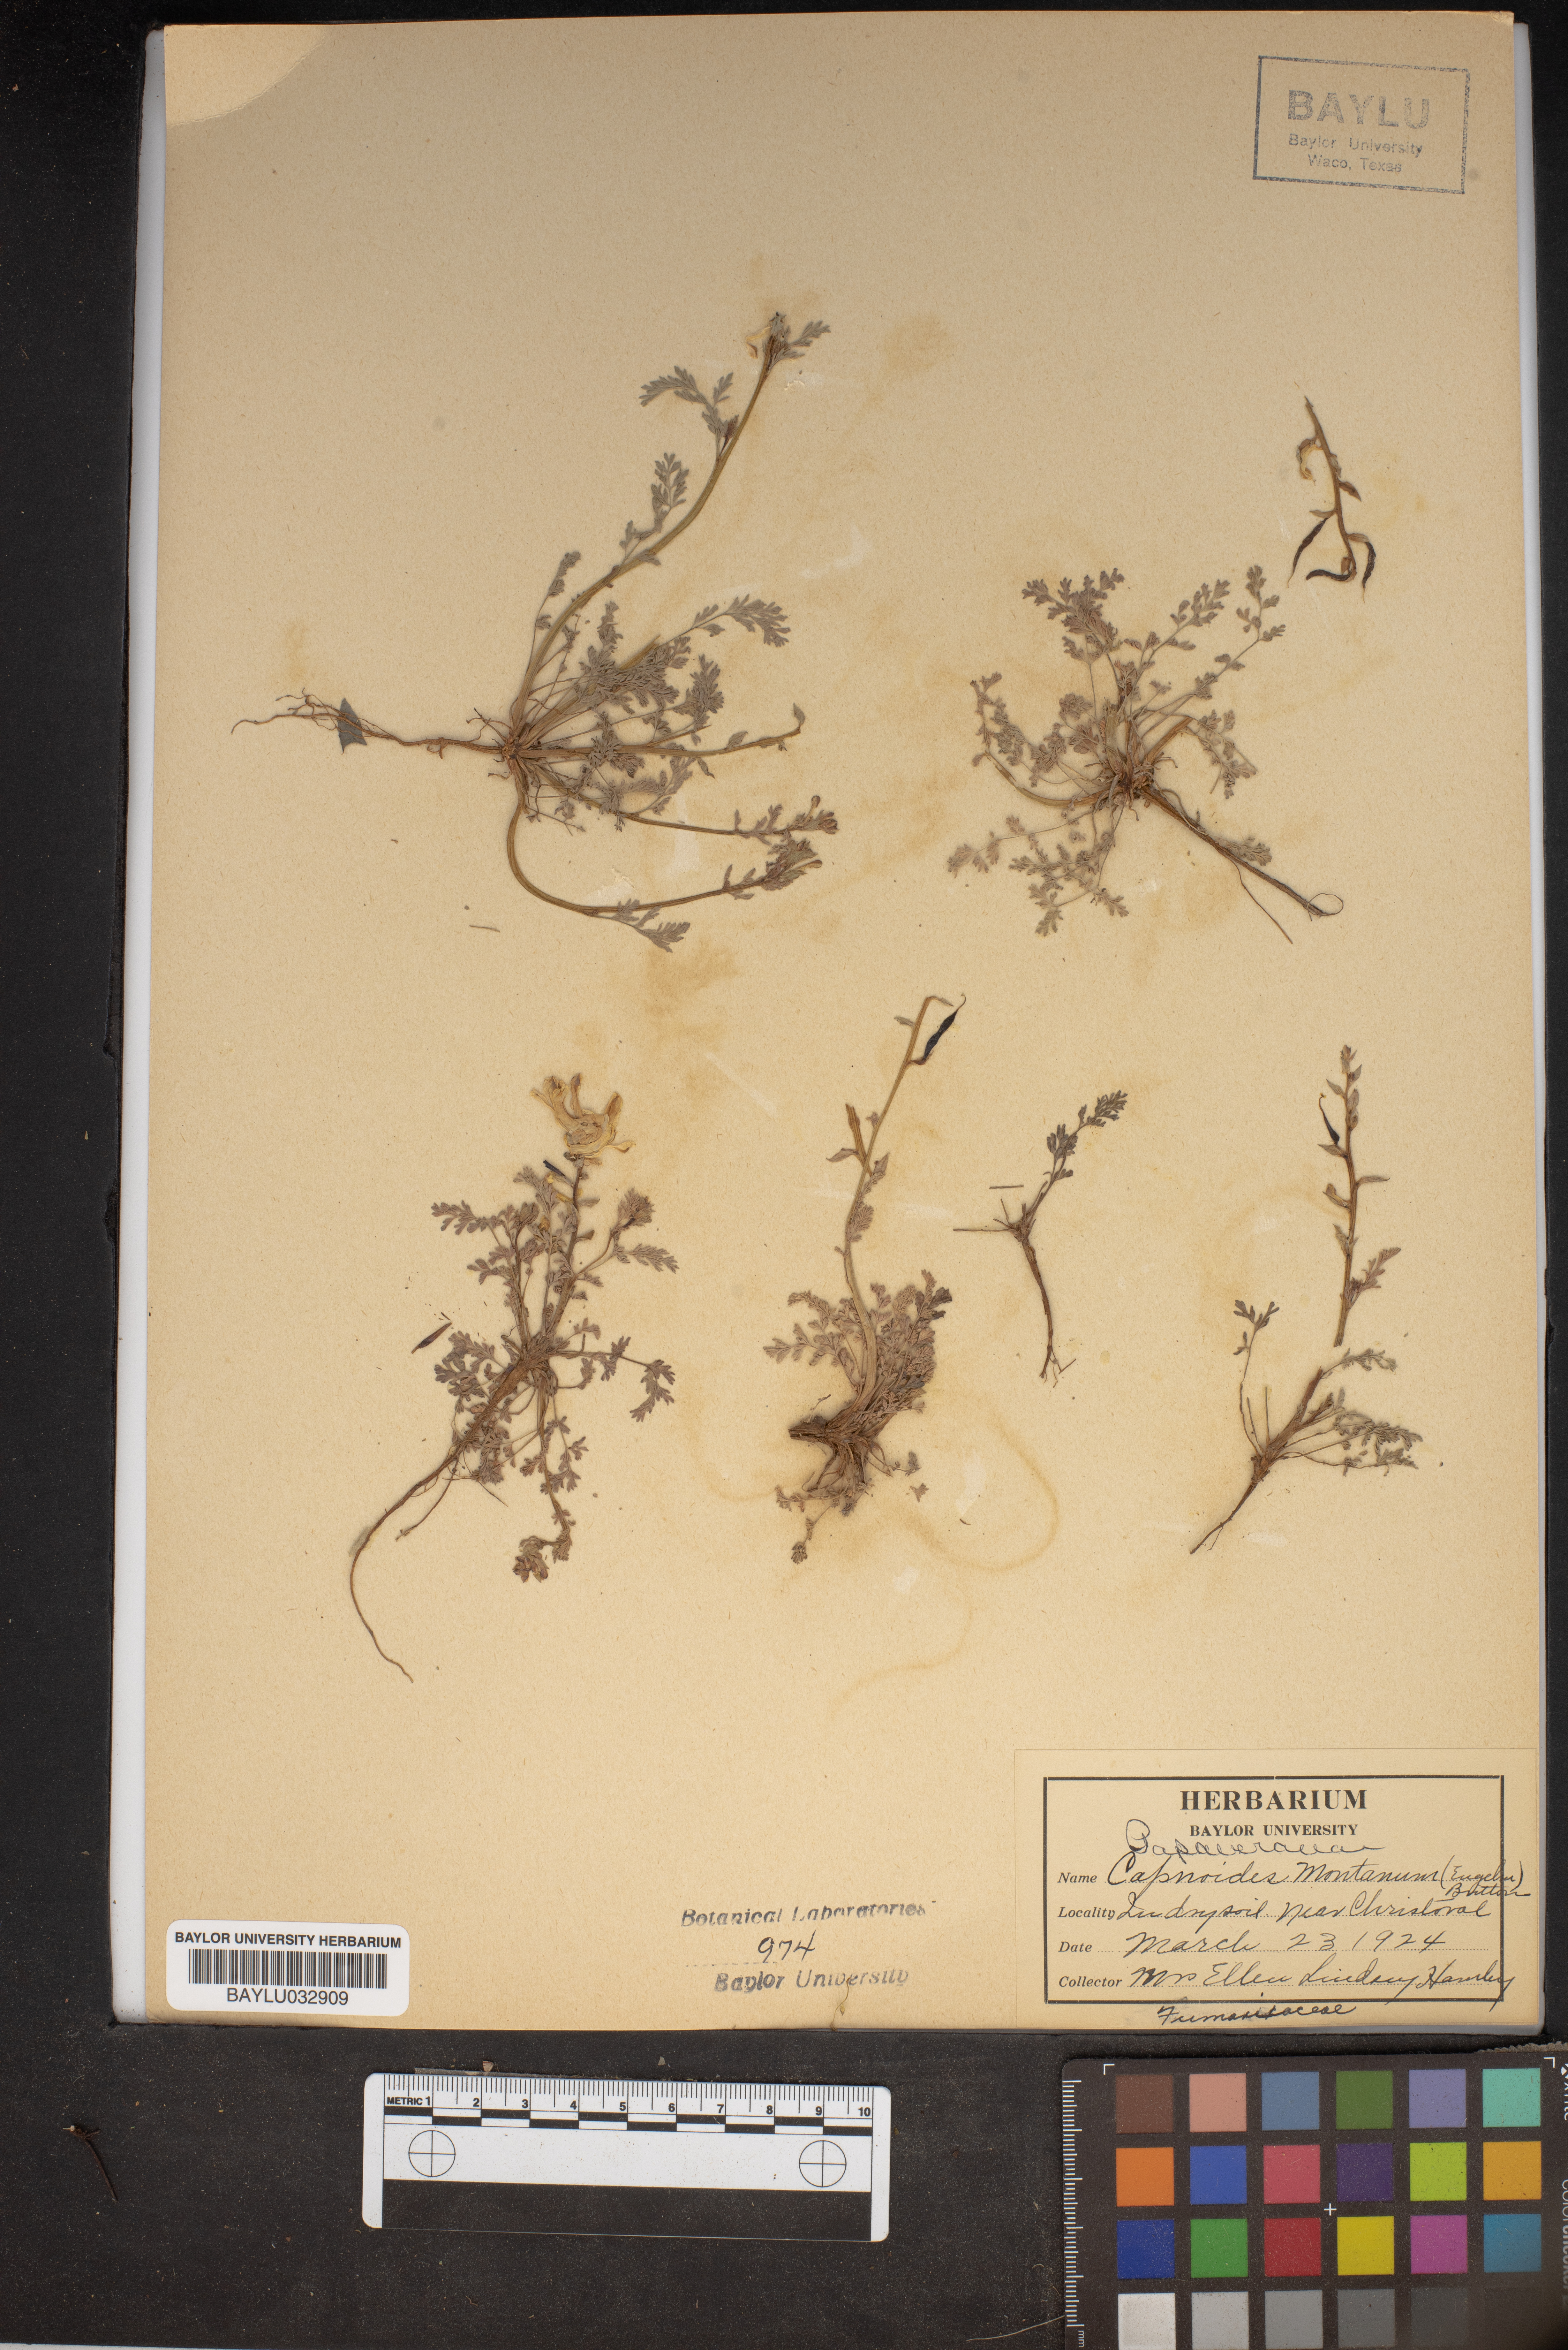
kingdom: Plantae
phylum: Tracheophyta
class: Magnoliopsida
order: Ranunculales
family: Papaveraceae
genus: Corydalis
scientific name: Corydalis curvisiliqua
